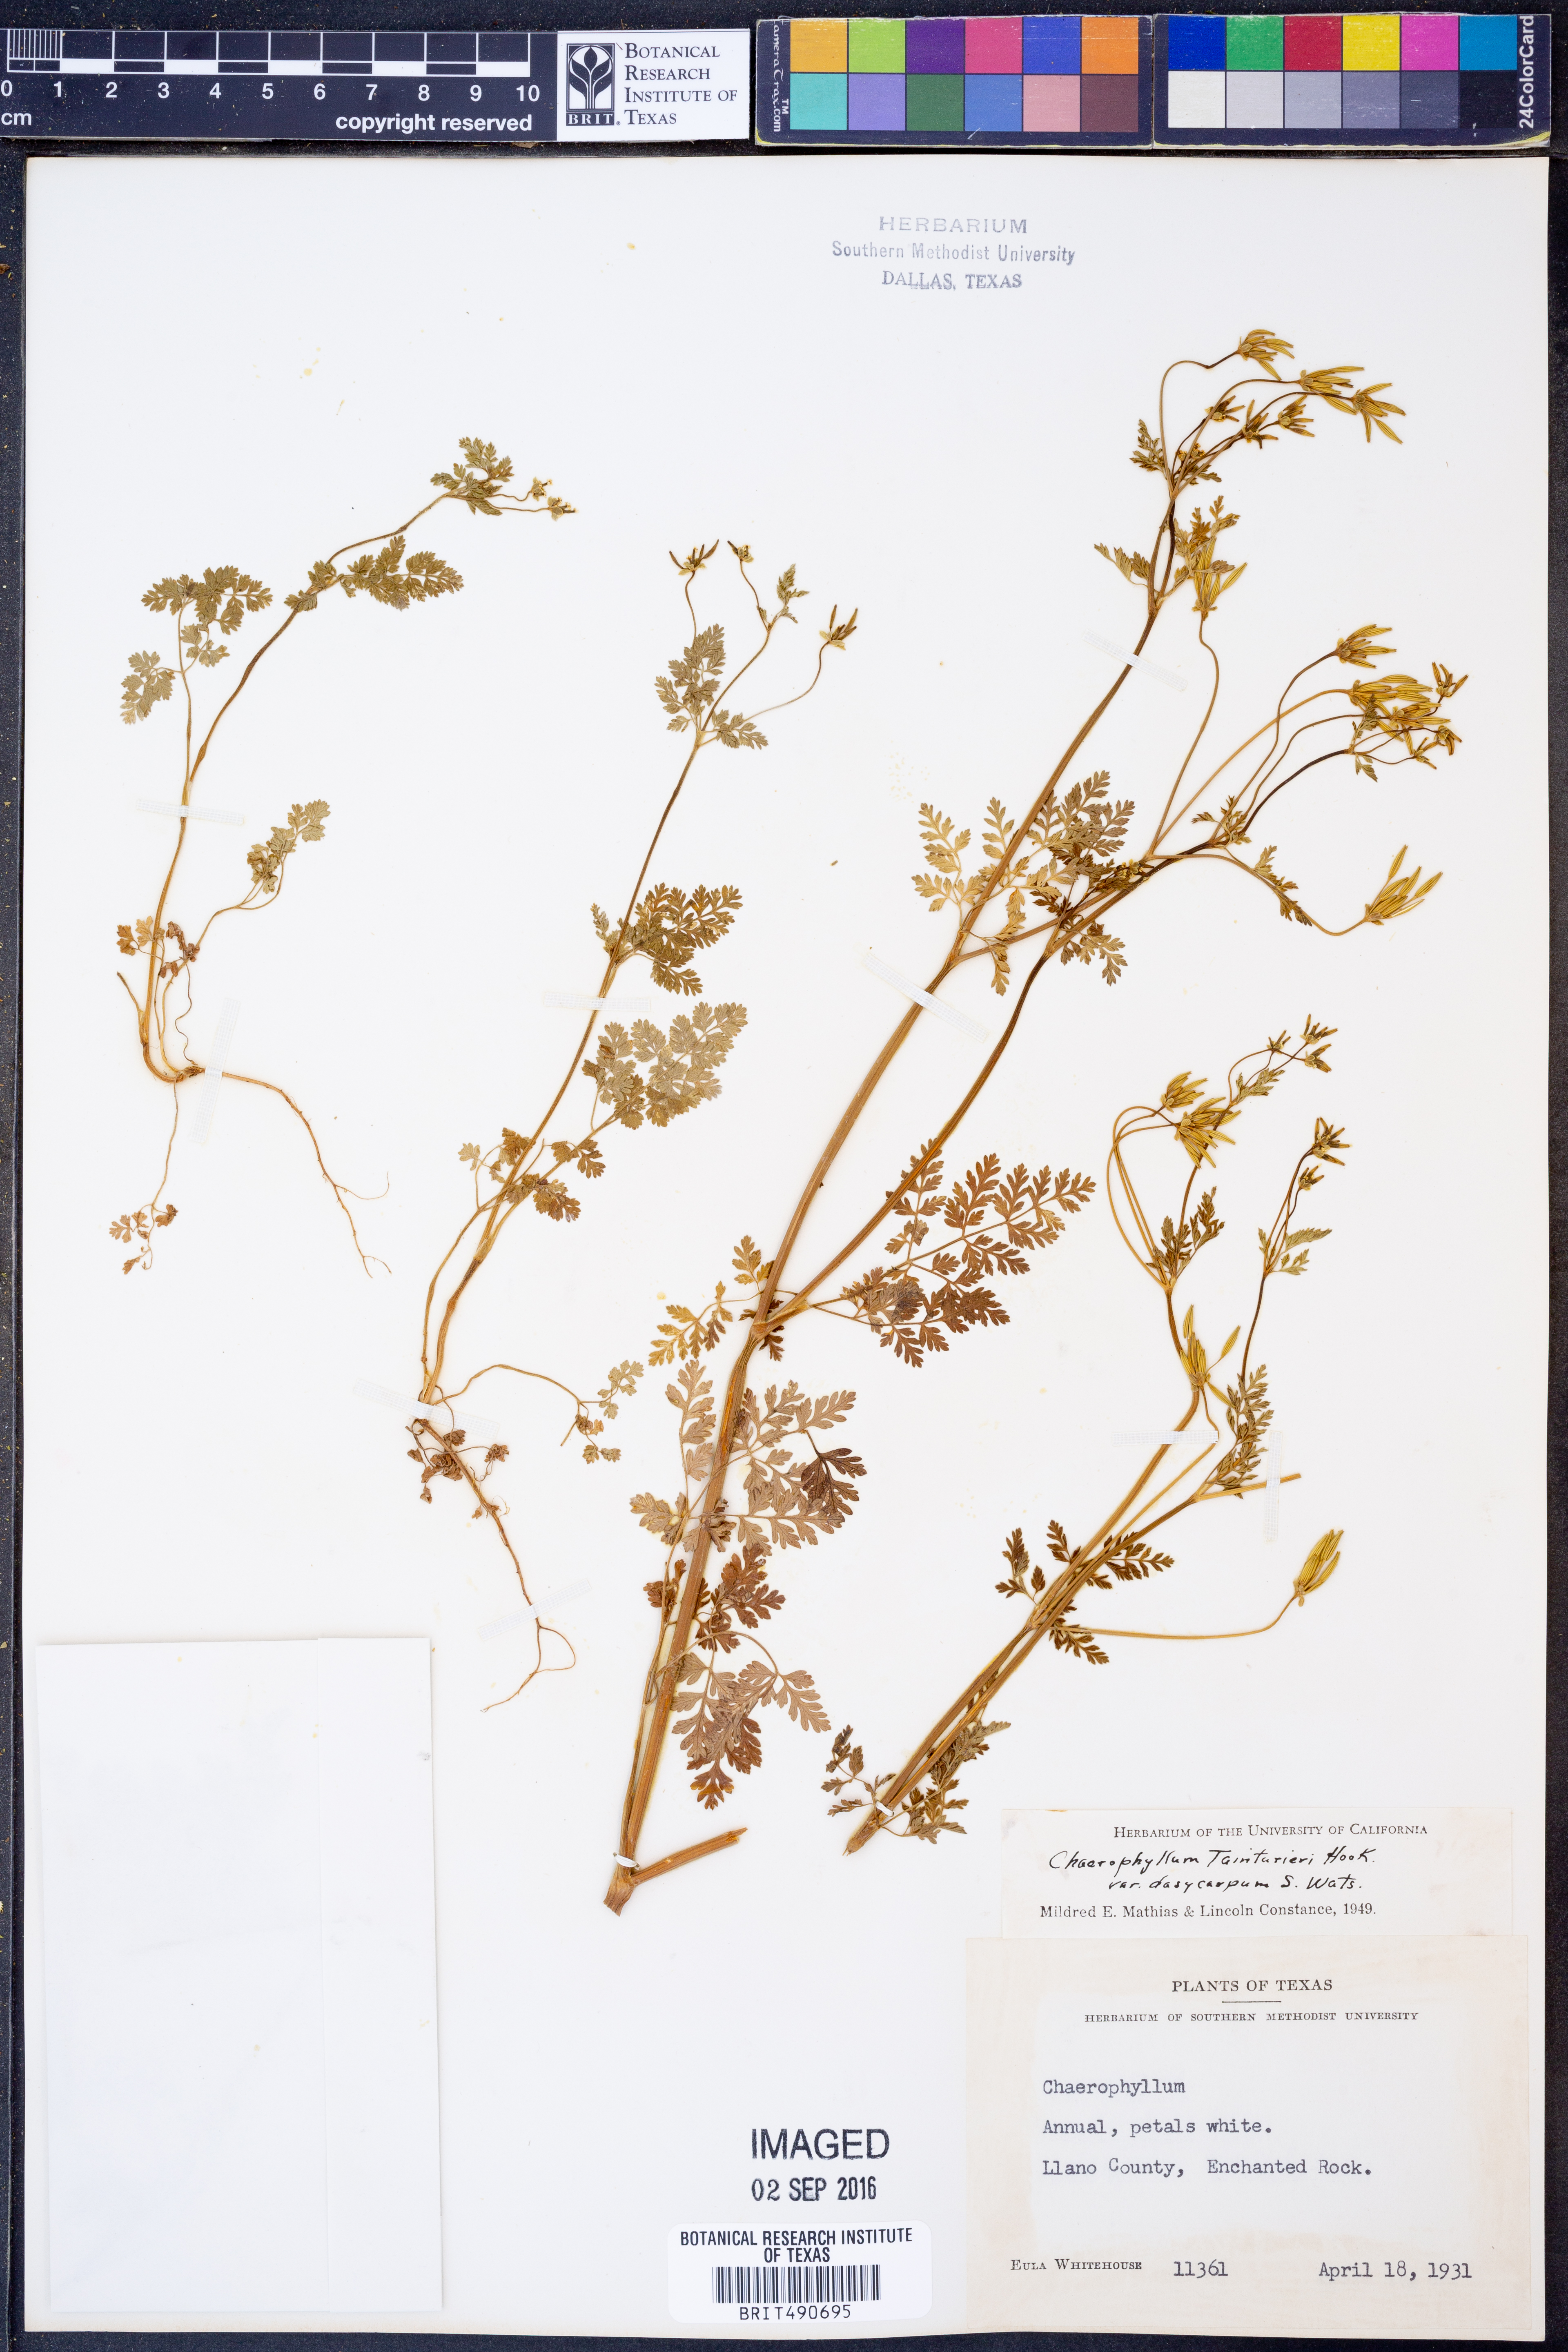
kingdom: Plantae
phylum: Tracheophyta
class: Magnoliopsida
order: Apiales
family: Apiaceae
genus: Chaerophyllum
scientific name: Chaerophyllum dasycarpum
